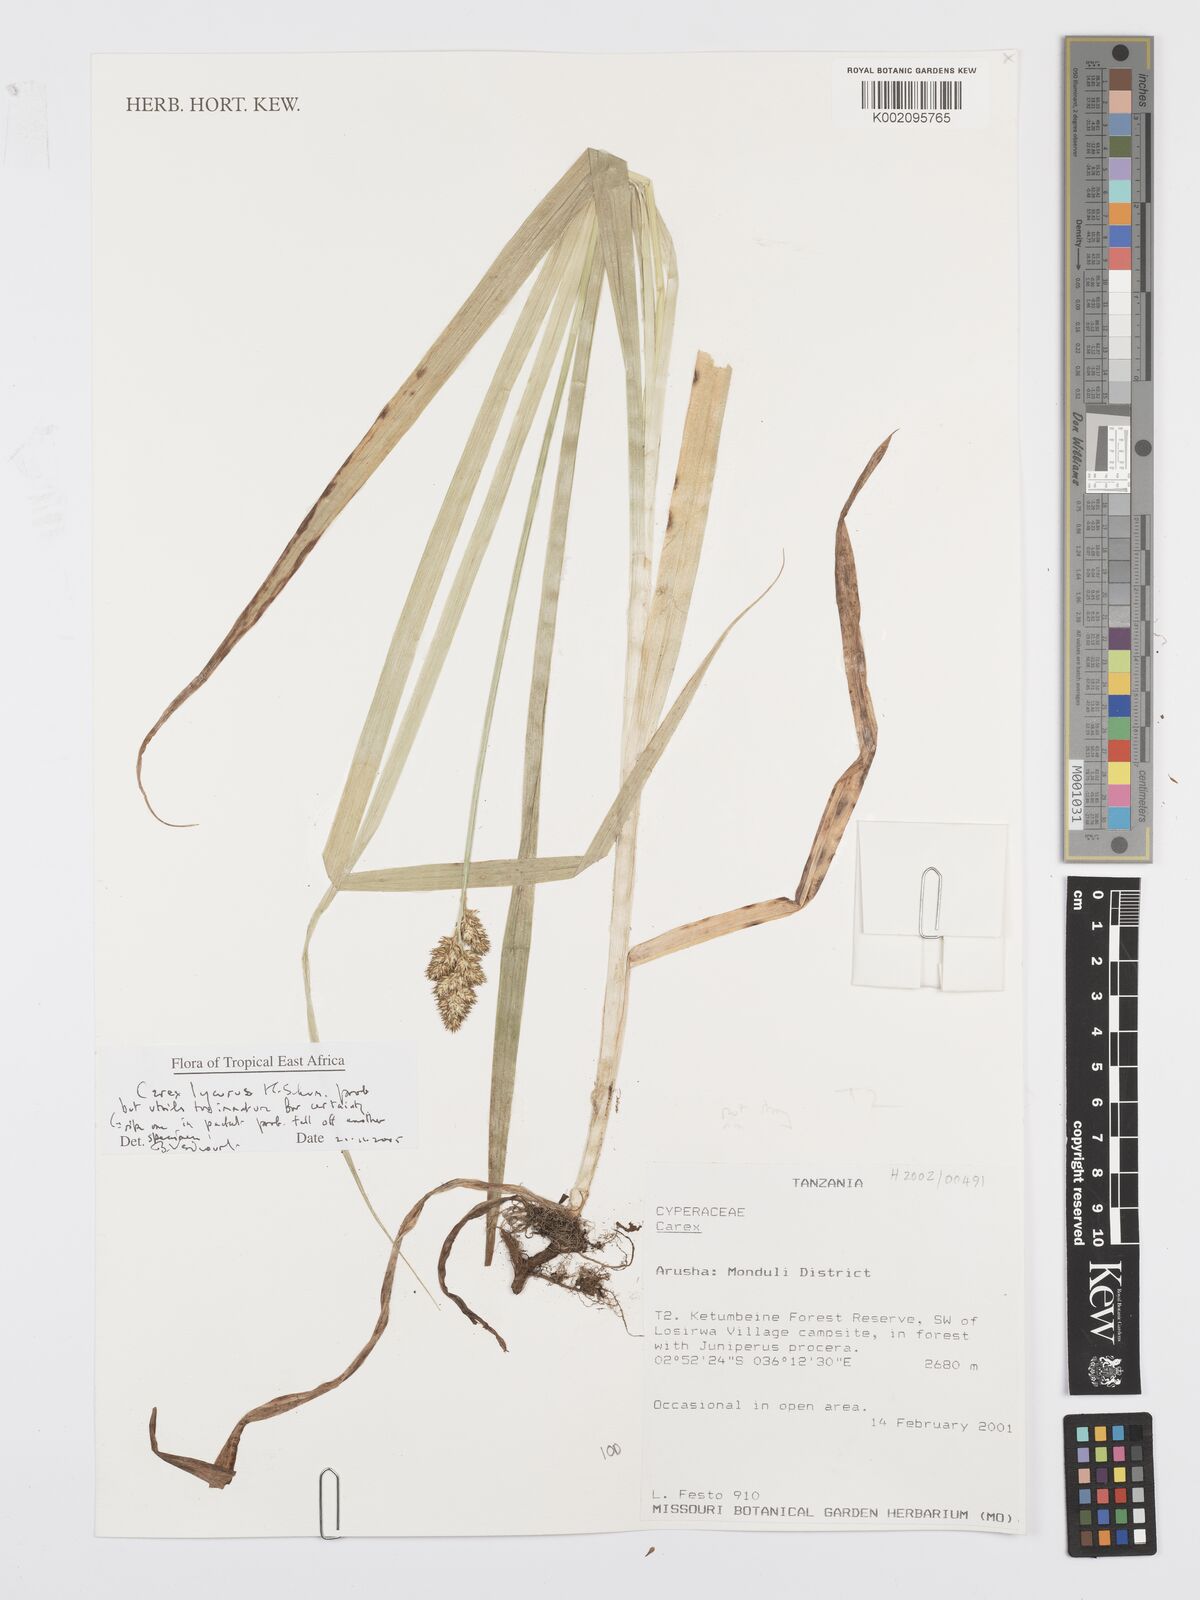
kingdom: Plantae
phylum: Tracheophyta
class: Liliopsida
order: Poales
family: Cyperaceae
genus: Carex
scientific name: Carex lycurus
